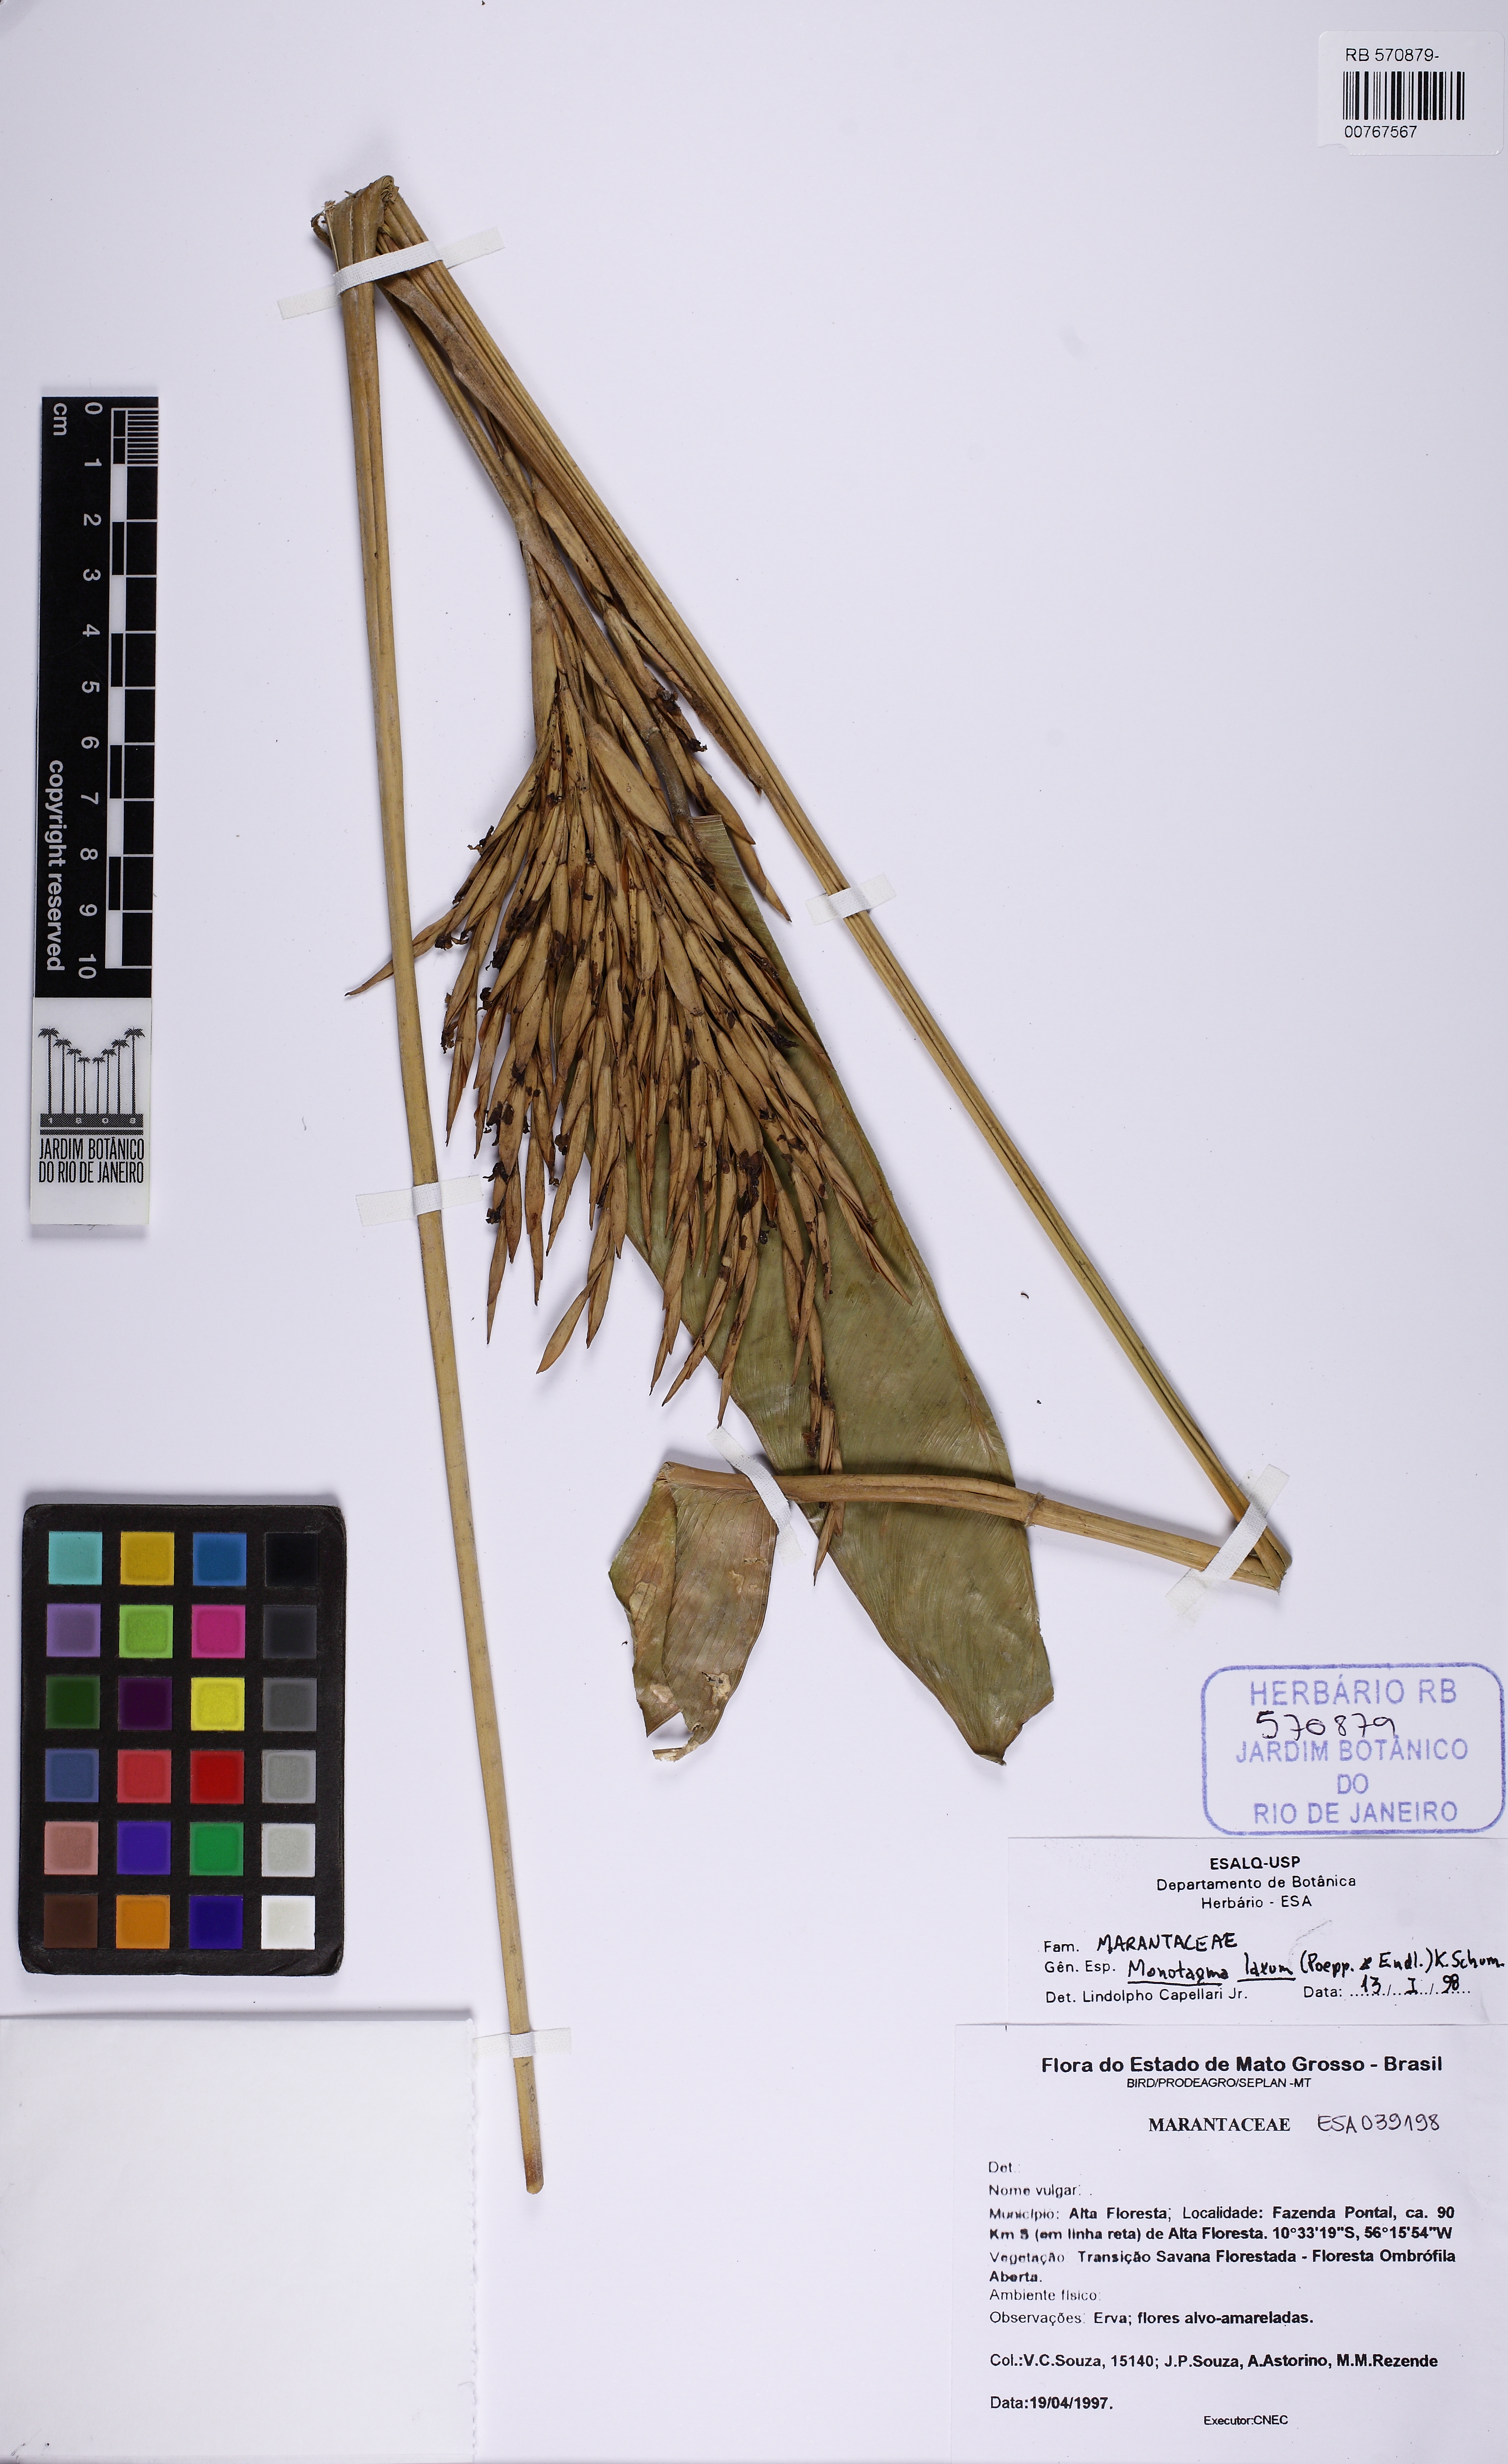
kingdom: Plantae
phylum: Tracheophyta
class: Liliopsida
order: Zingiberales
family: Marantaceae
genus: Monotagma
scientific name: Monotagma laxum
